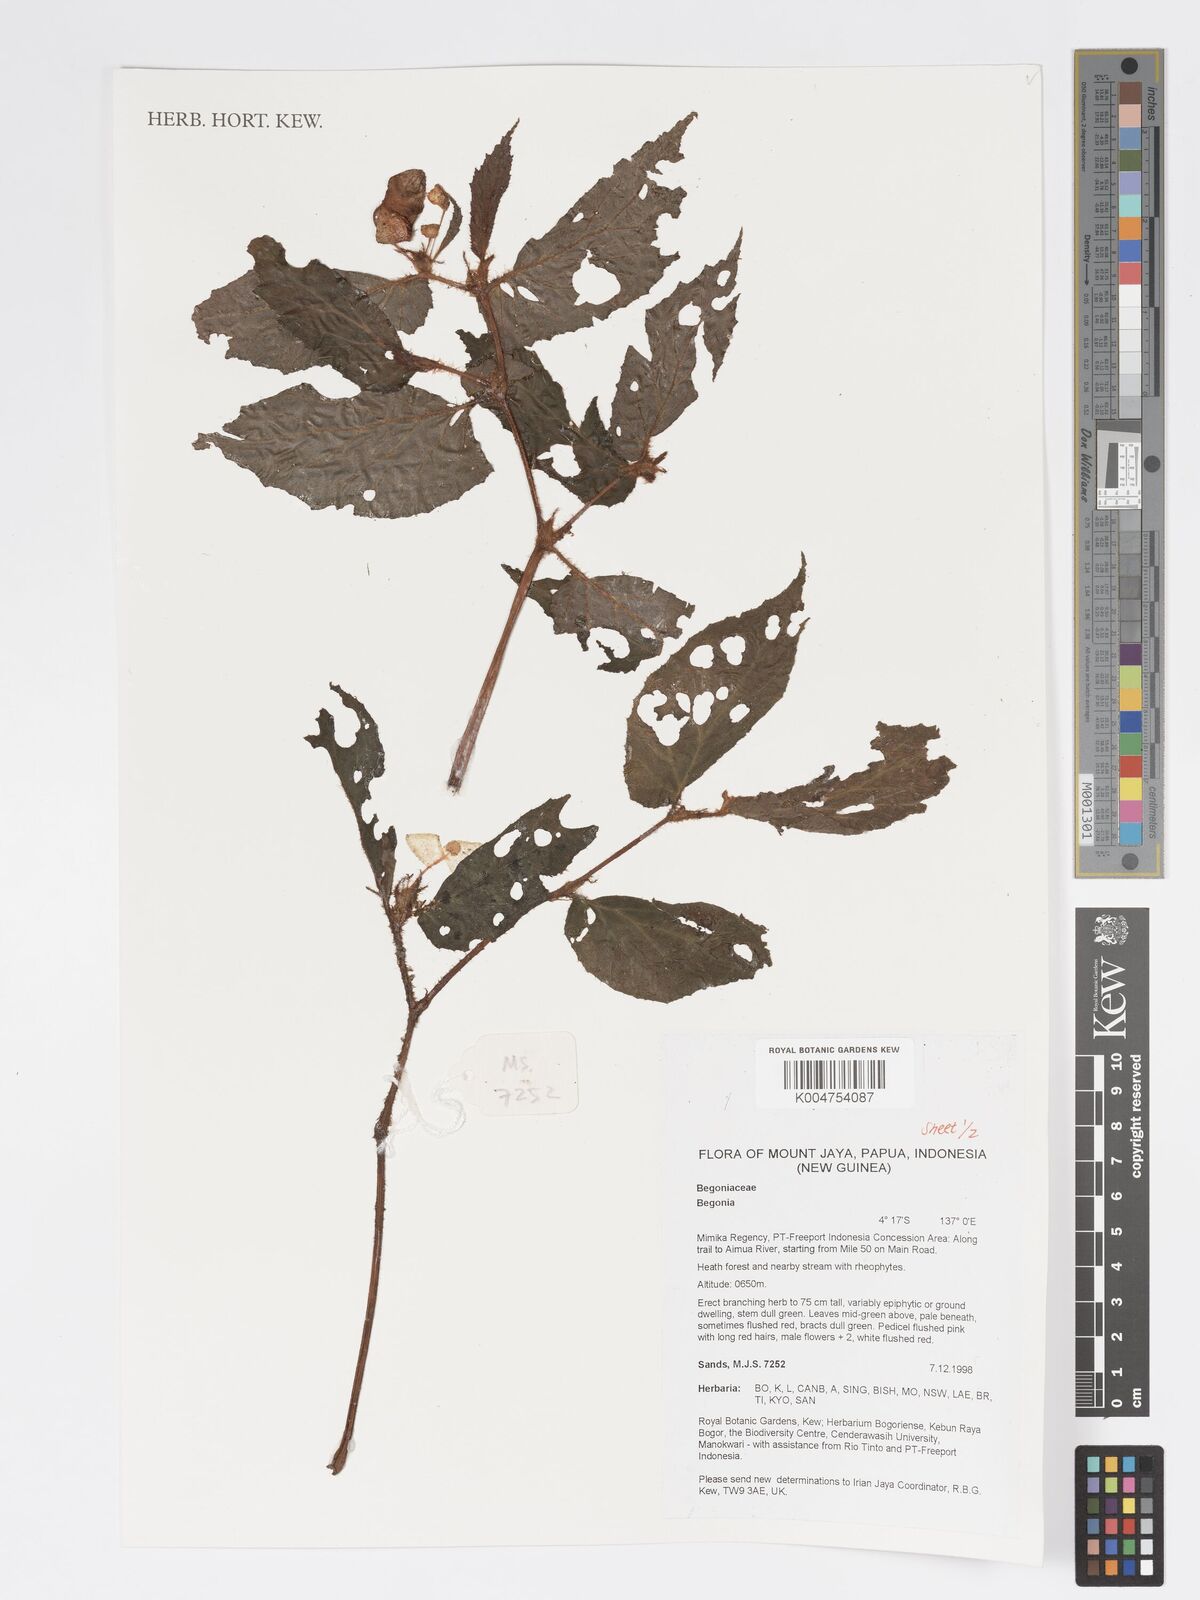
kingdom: Plantae
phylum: Tracheophyta
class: Magnoliopsida
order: Cucurbitales
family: Begoniaceae
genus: Begonia
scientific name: Begonia
